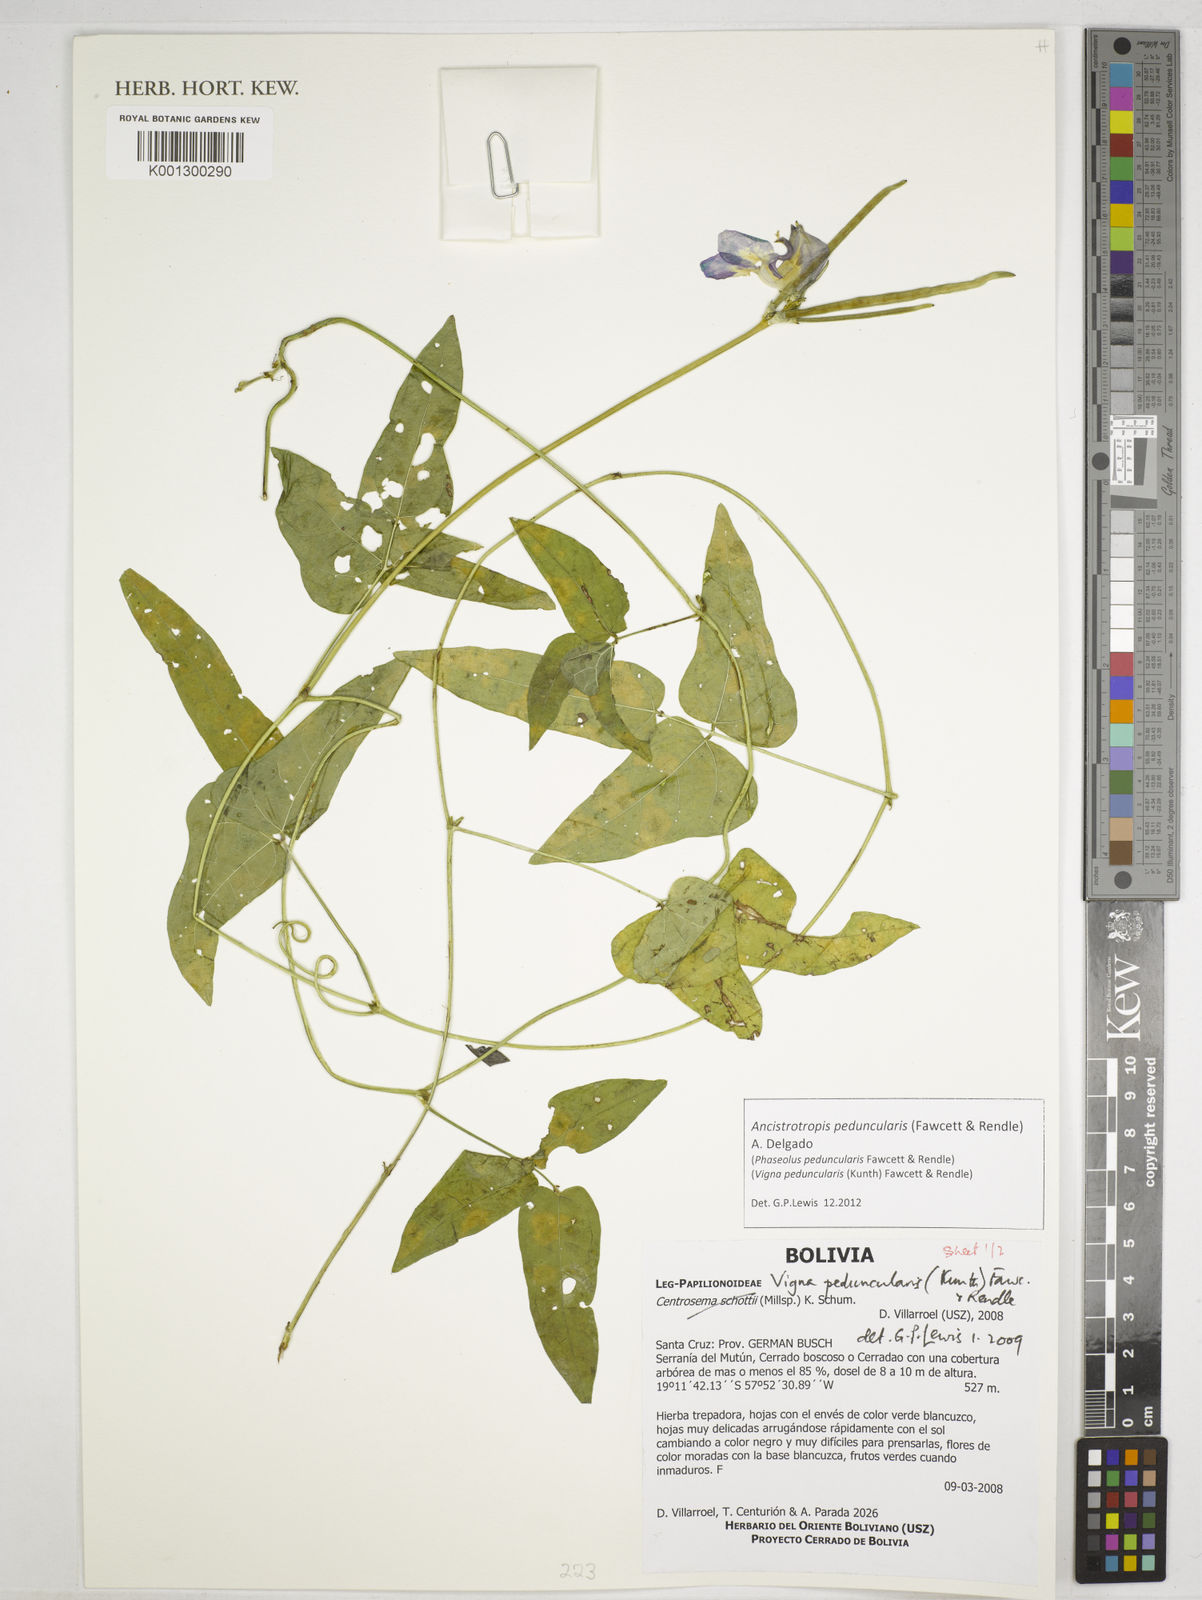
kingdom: Plantae
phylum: Tracheophyta
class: Magnoliopsida
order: Fabales
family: Fabaceae
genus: Ancistrotropis
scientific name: Ancistrotropis peduncularis
